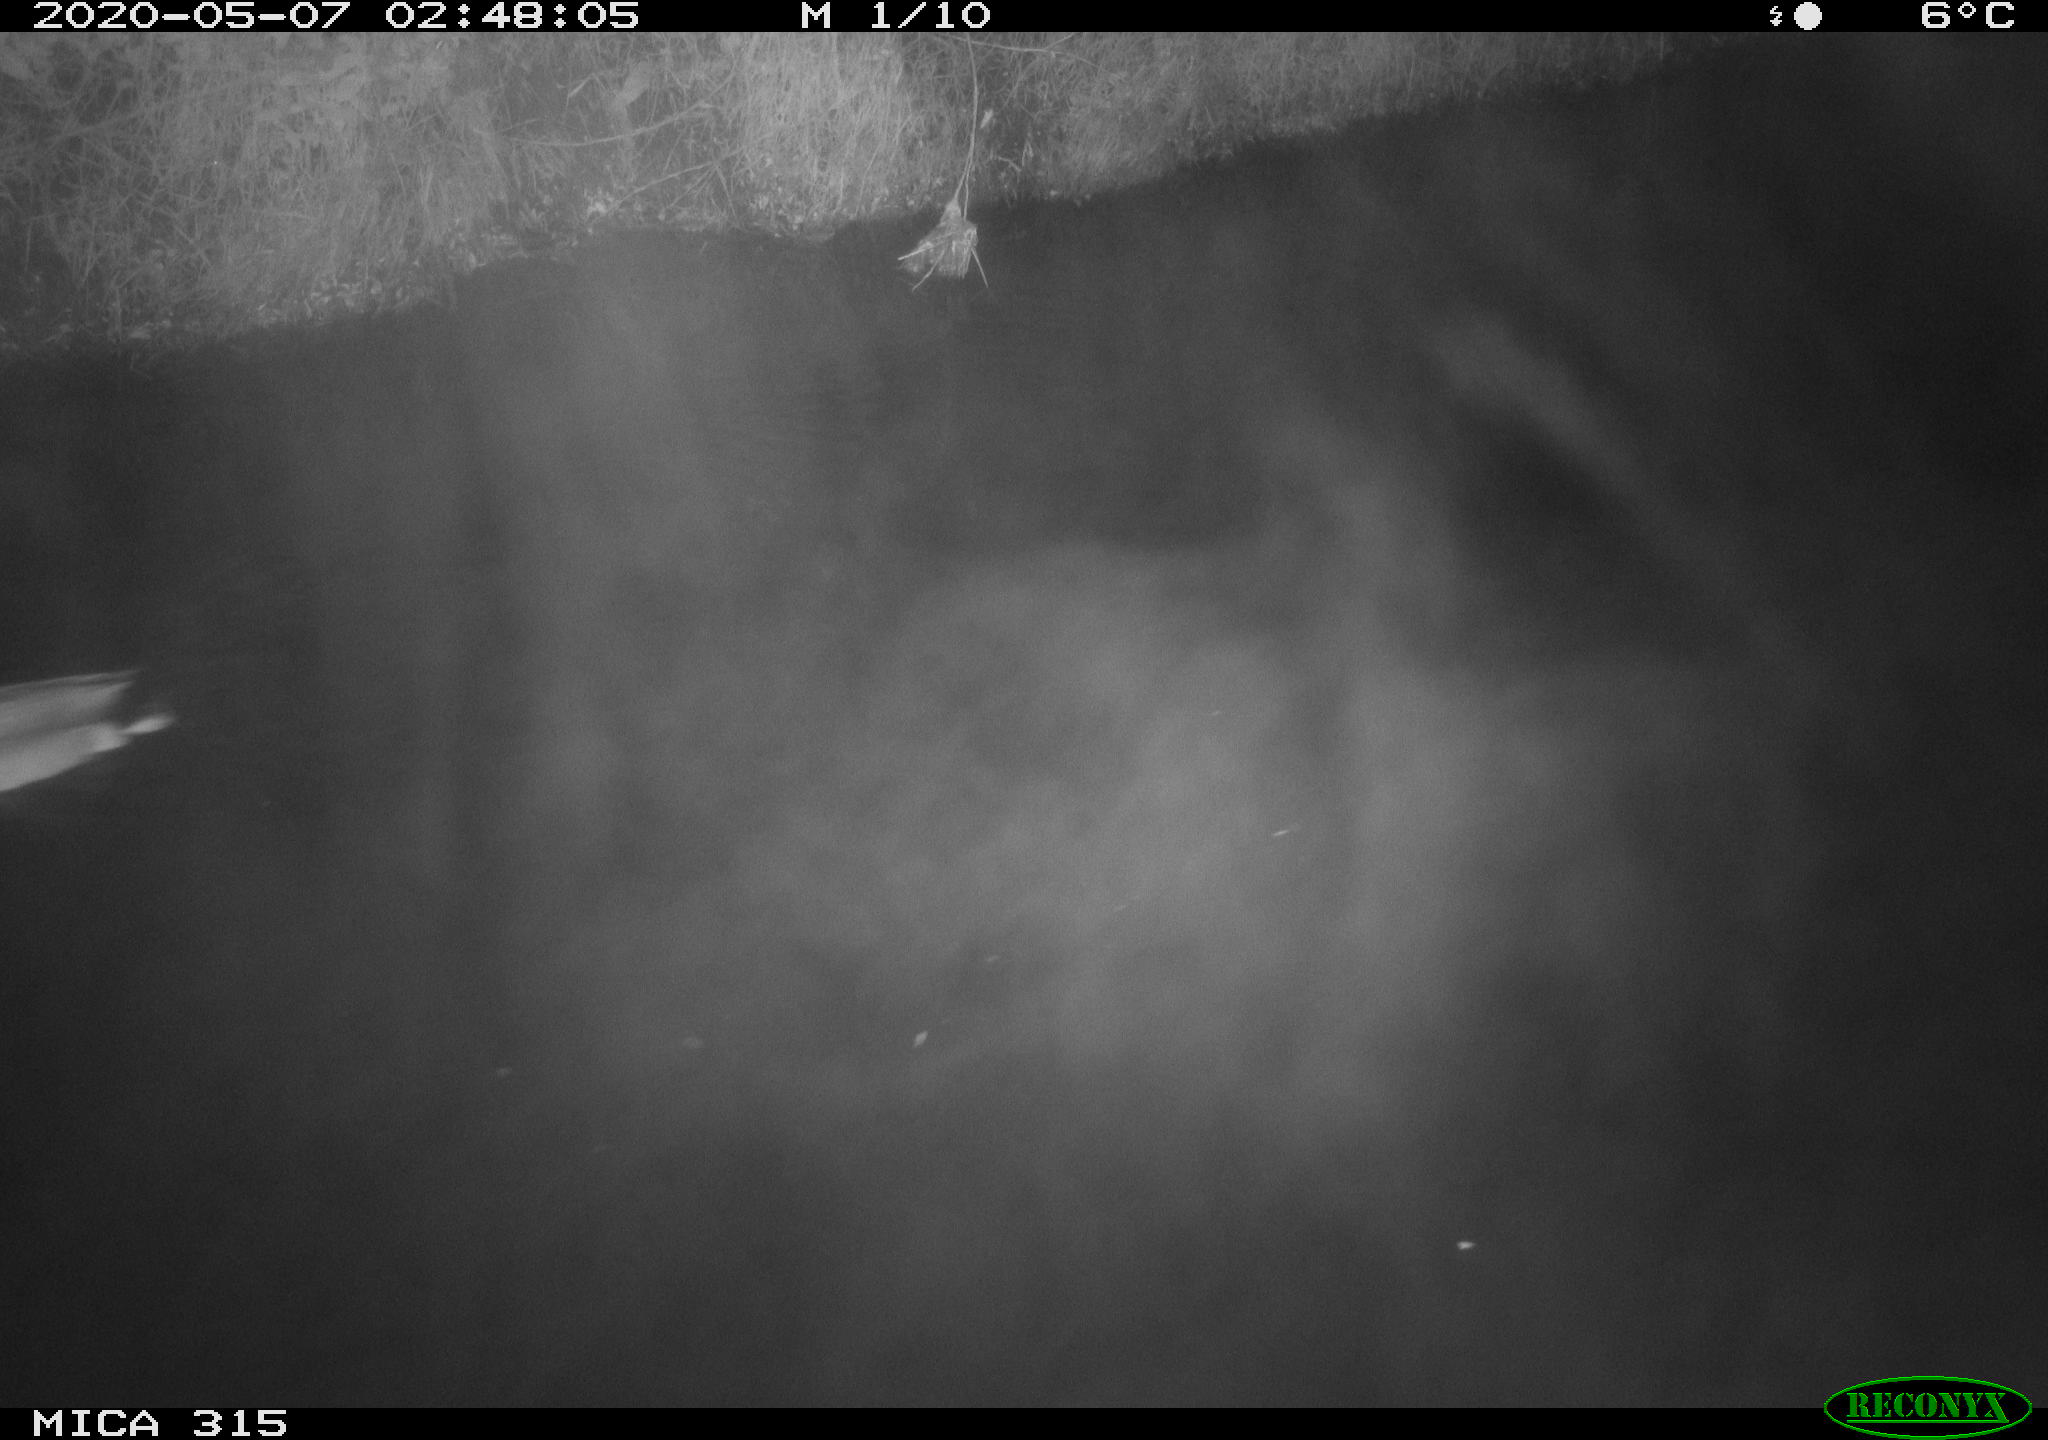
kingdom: Animalia
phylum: Chordata
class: Aves
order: Anseriformes
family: Anatidae
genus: Anas
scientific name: Anas platyrhynchos
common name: Mallard
